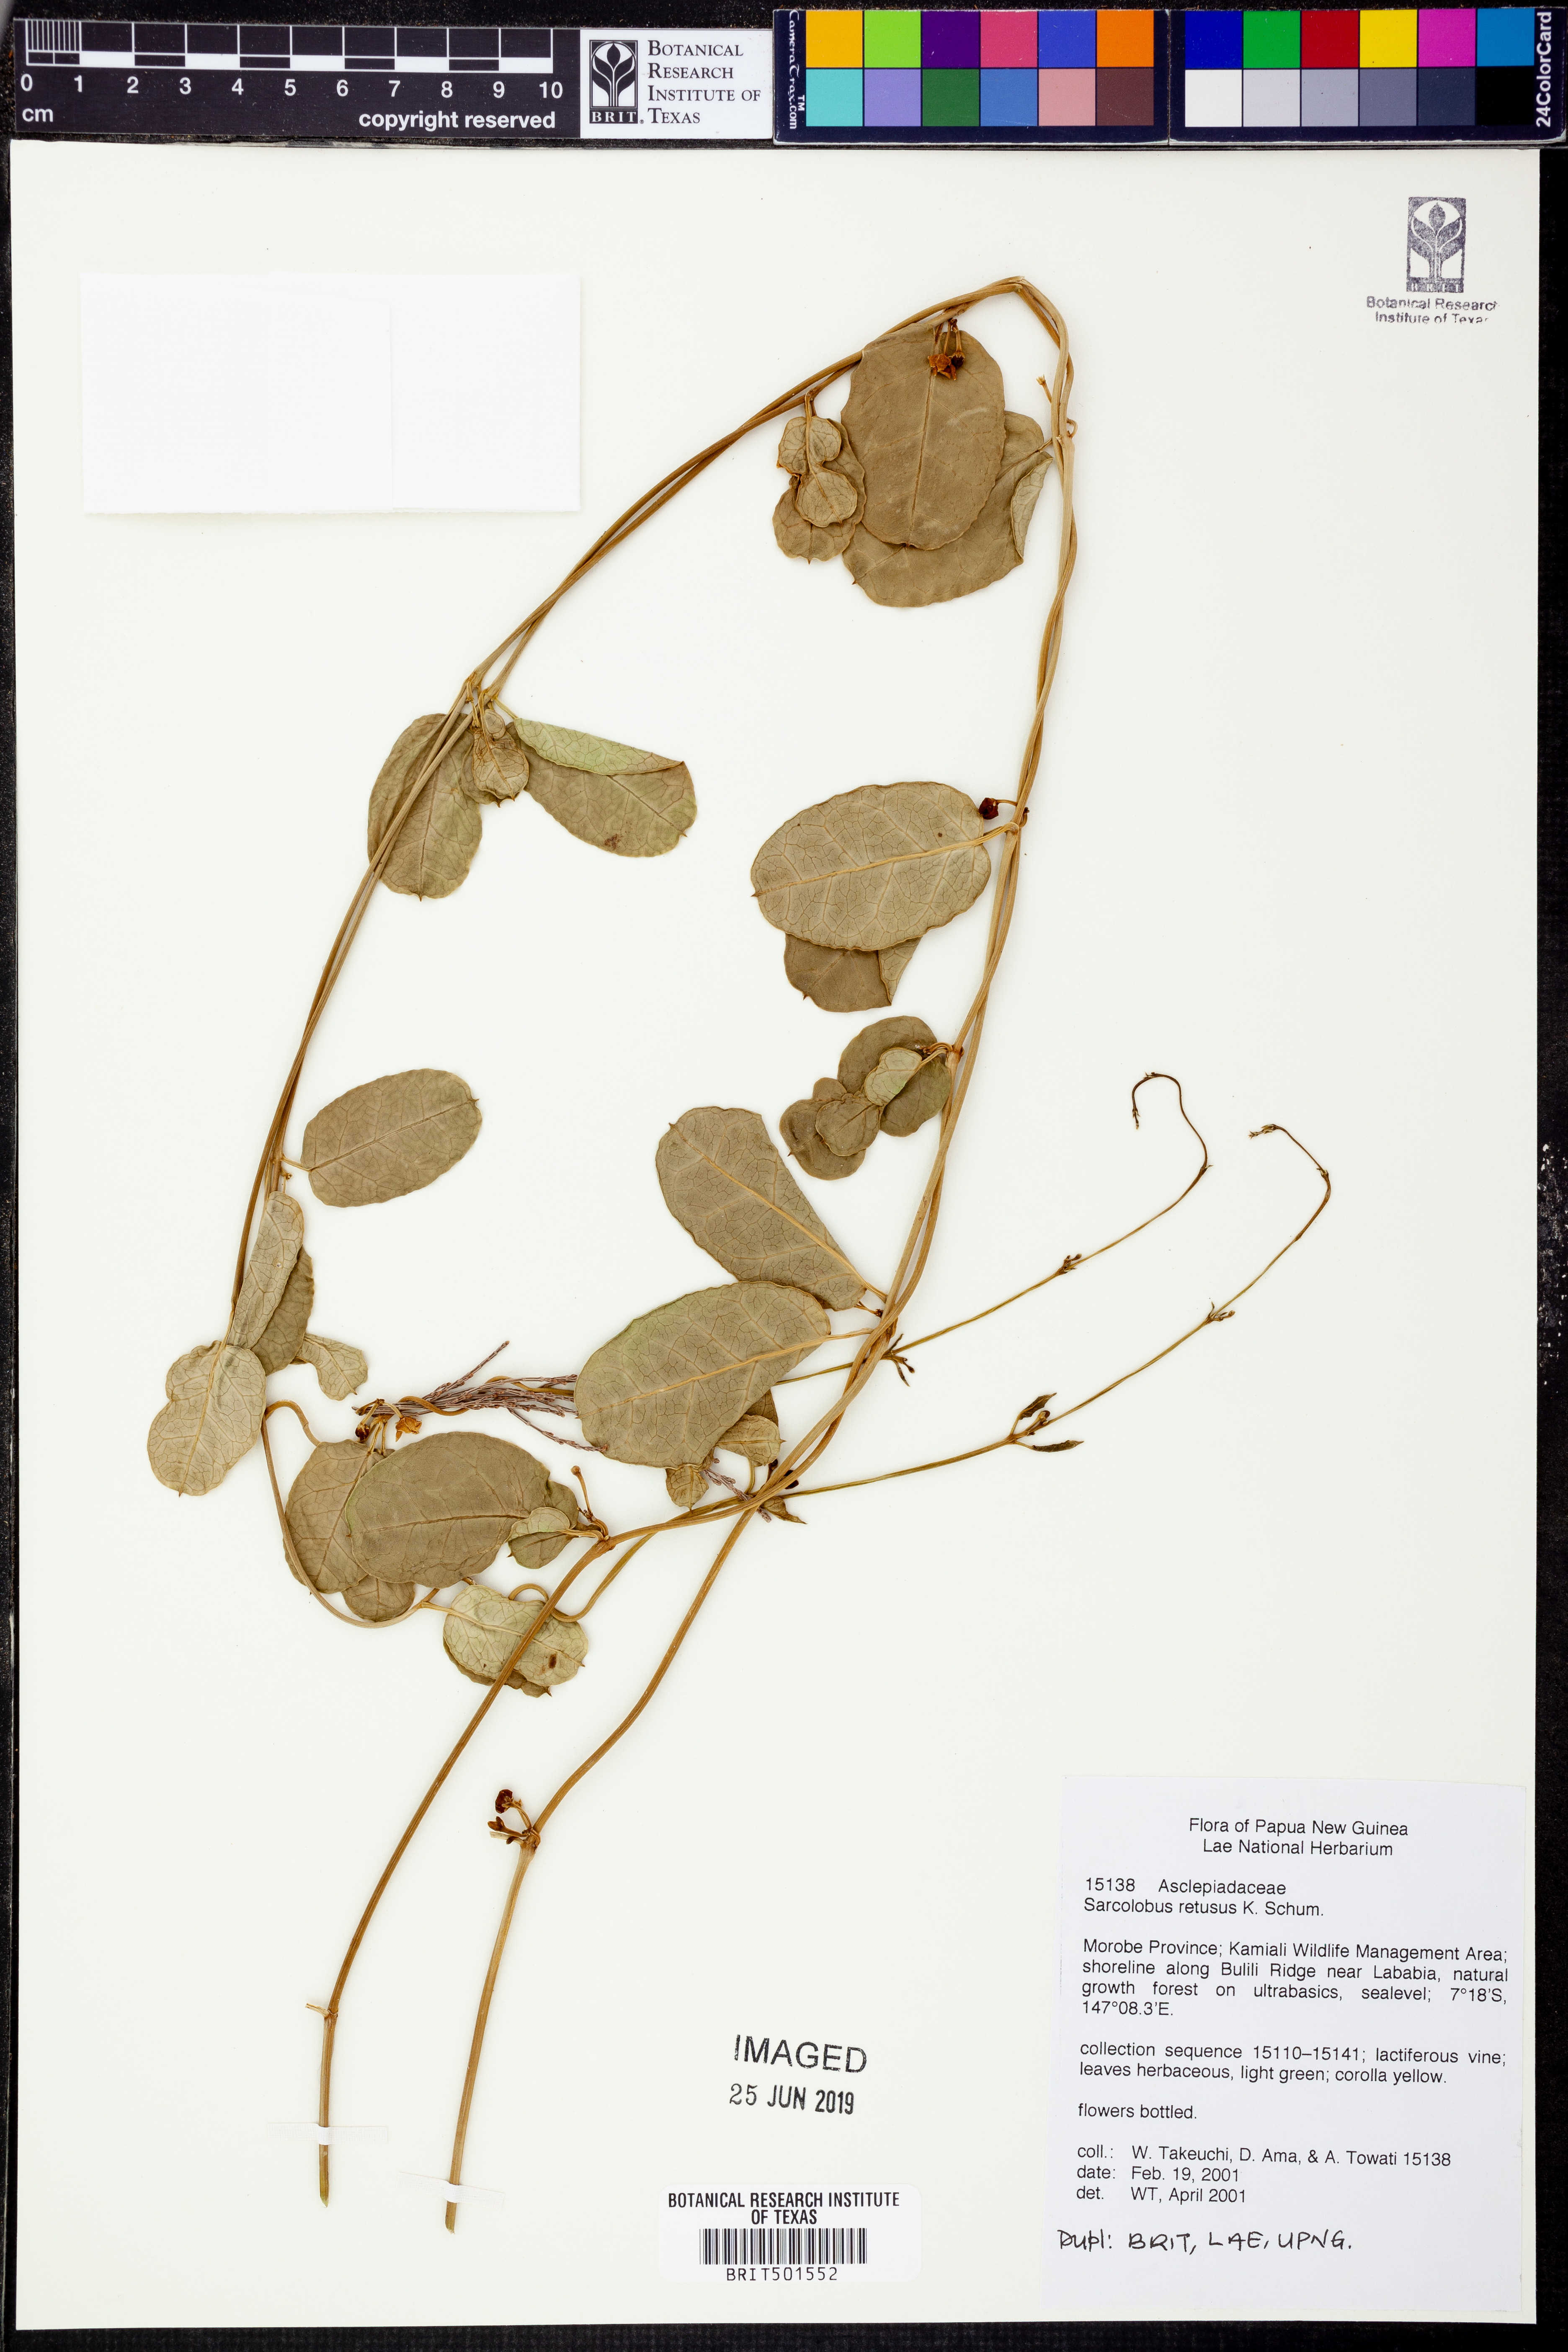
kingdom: Plantae
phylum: Tracheophyta
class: Magnoliopsida
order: Gentianales
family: Apocynaceae
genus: Sarcolobus
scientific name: Sarcolobus retusus
